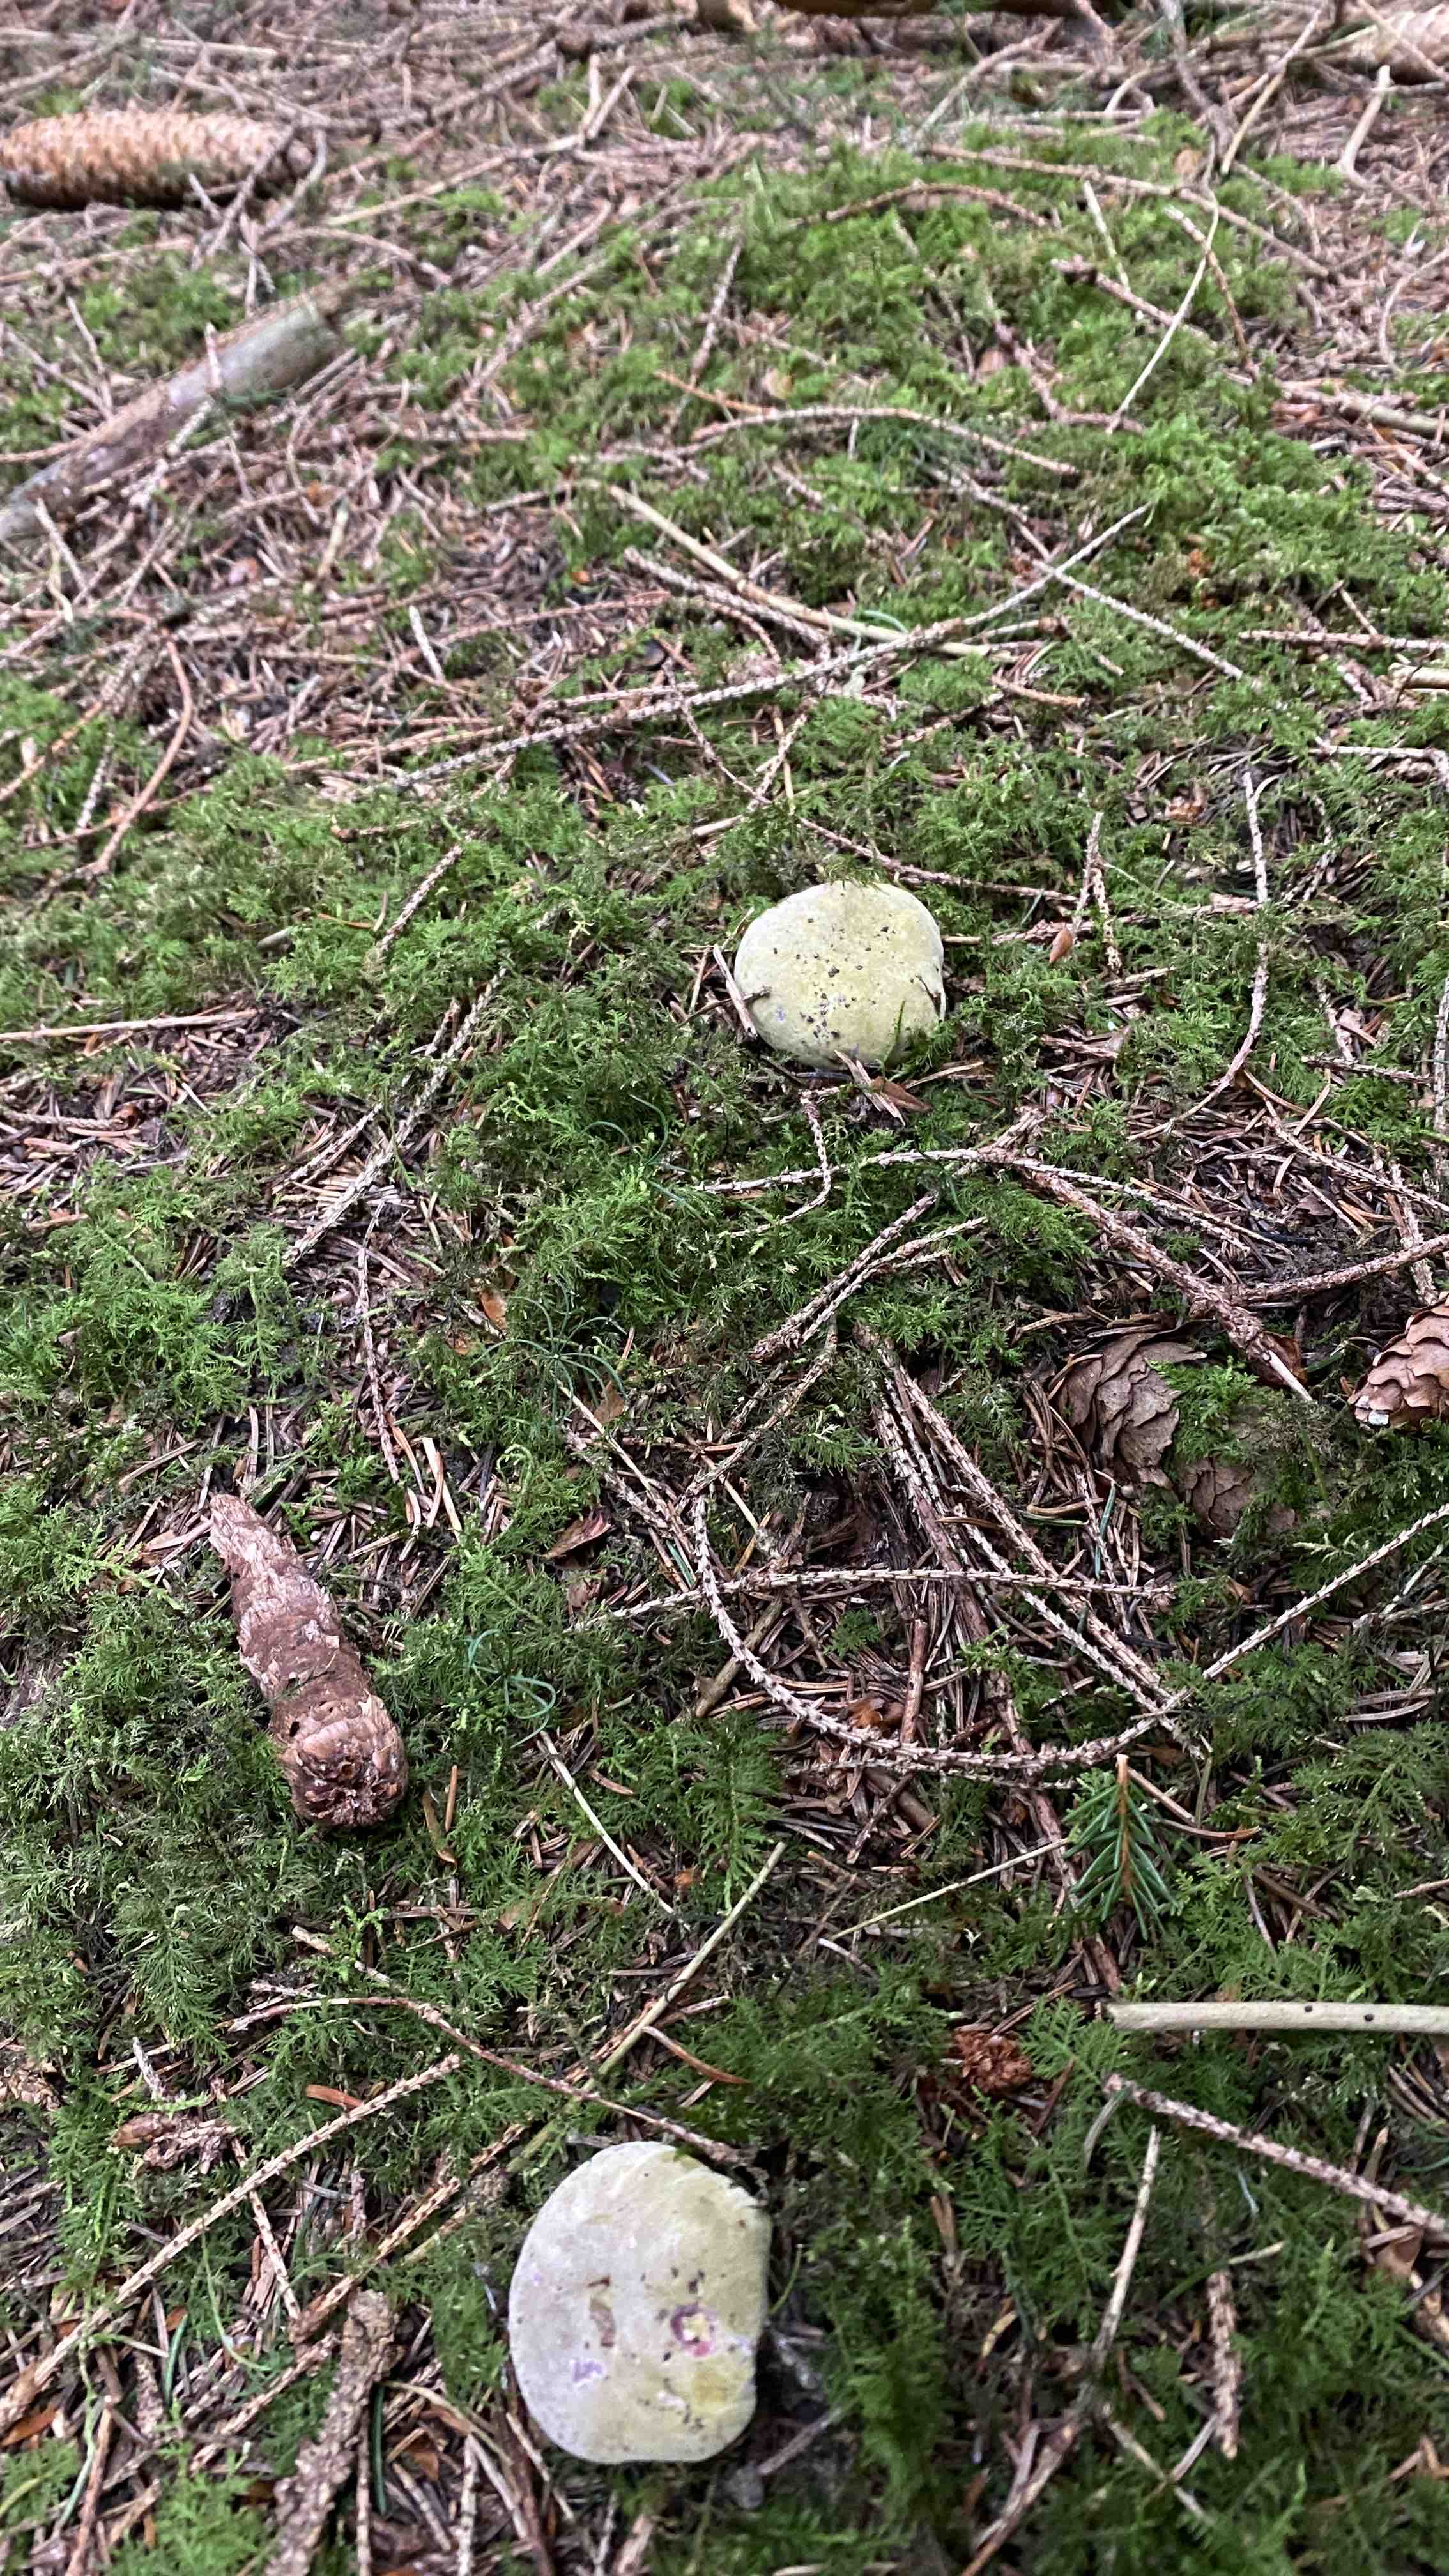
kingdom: Fungi
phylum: Ascomycota
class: Sordariomycetes
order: Hypocreales
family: Hypocreaceae
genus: Hypomyces
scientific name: Hypomyces luteovirens
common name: gulgrøn snylteskorpe
